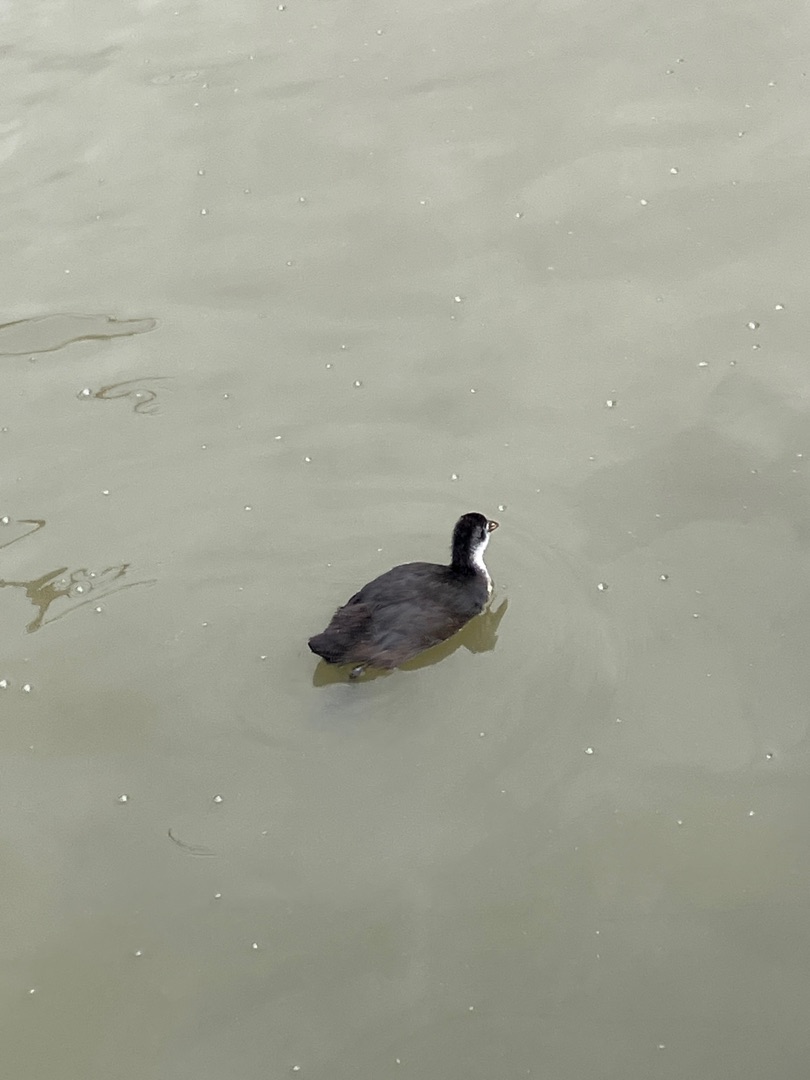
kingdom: Animalia
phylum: Chordata
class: Aves
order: Gruiformes
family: Rallidae
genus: Fulica
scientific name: Fulica atra
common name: Blishøne
